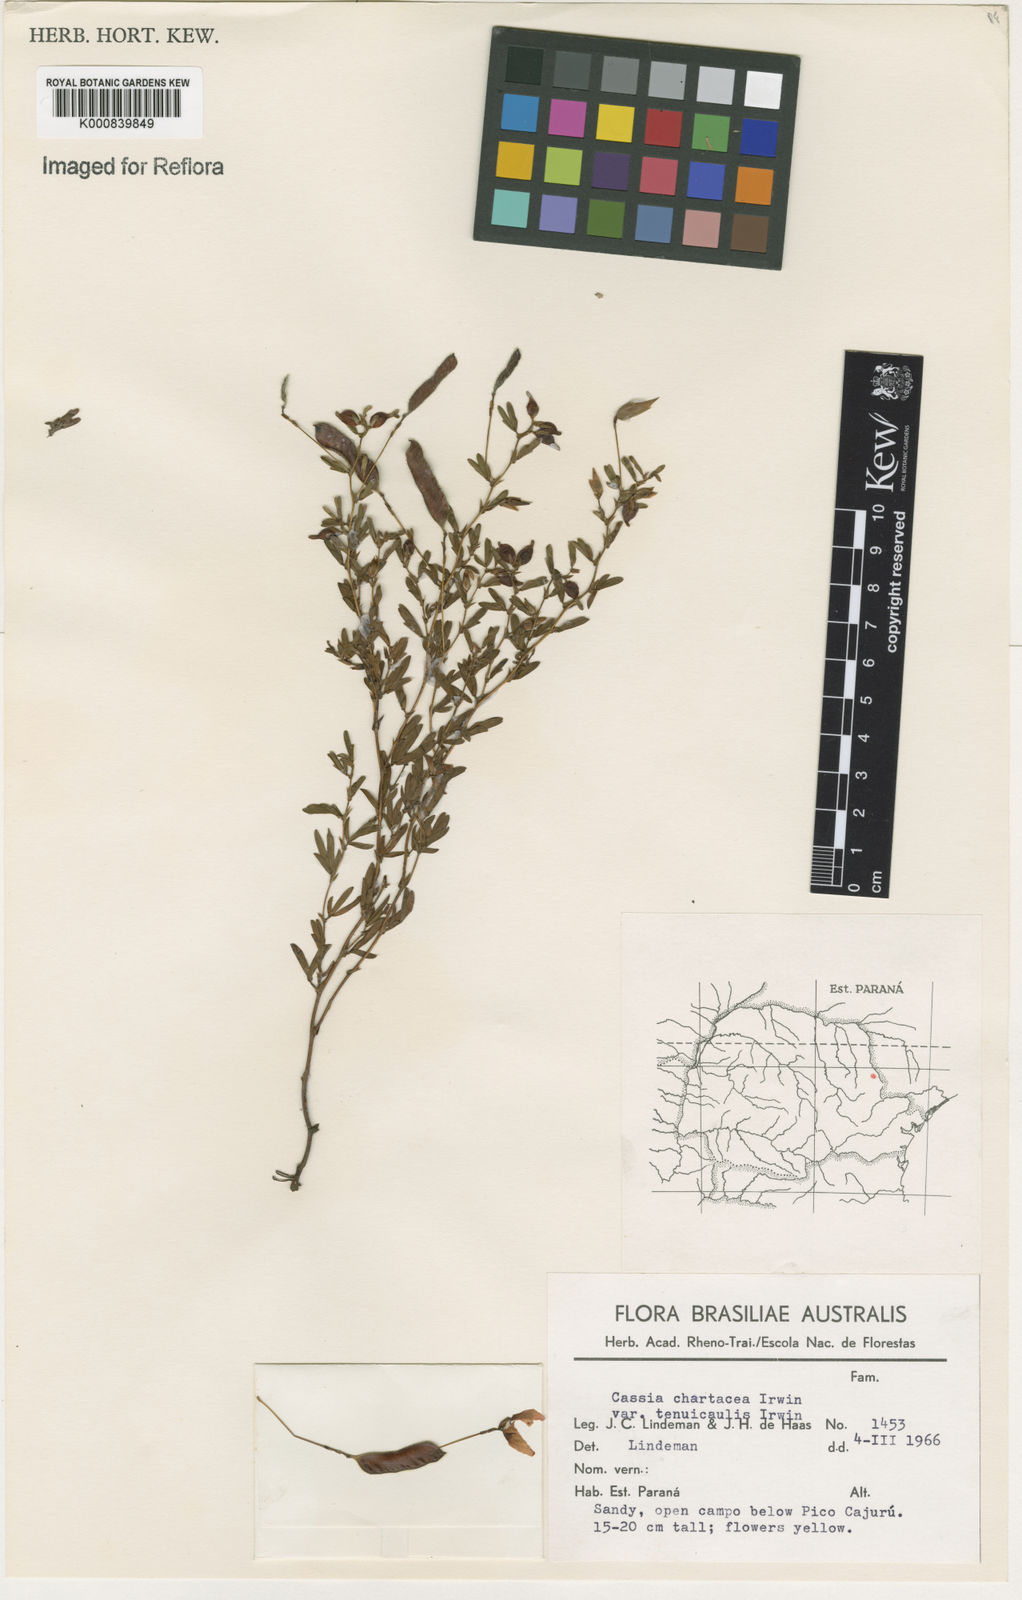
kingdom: Plantae
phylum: Tracheophyta
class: Magnoliopsida
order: Fabales
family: Fabaceae
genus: Chamaecrista
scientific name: Chamaecrista ramosa
